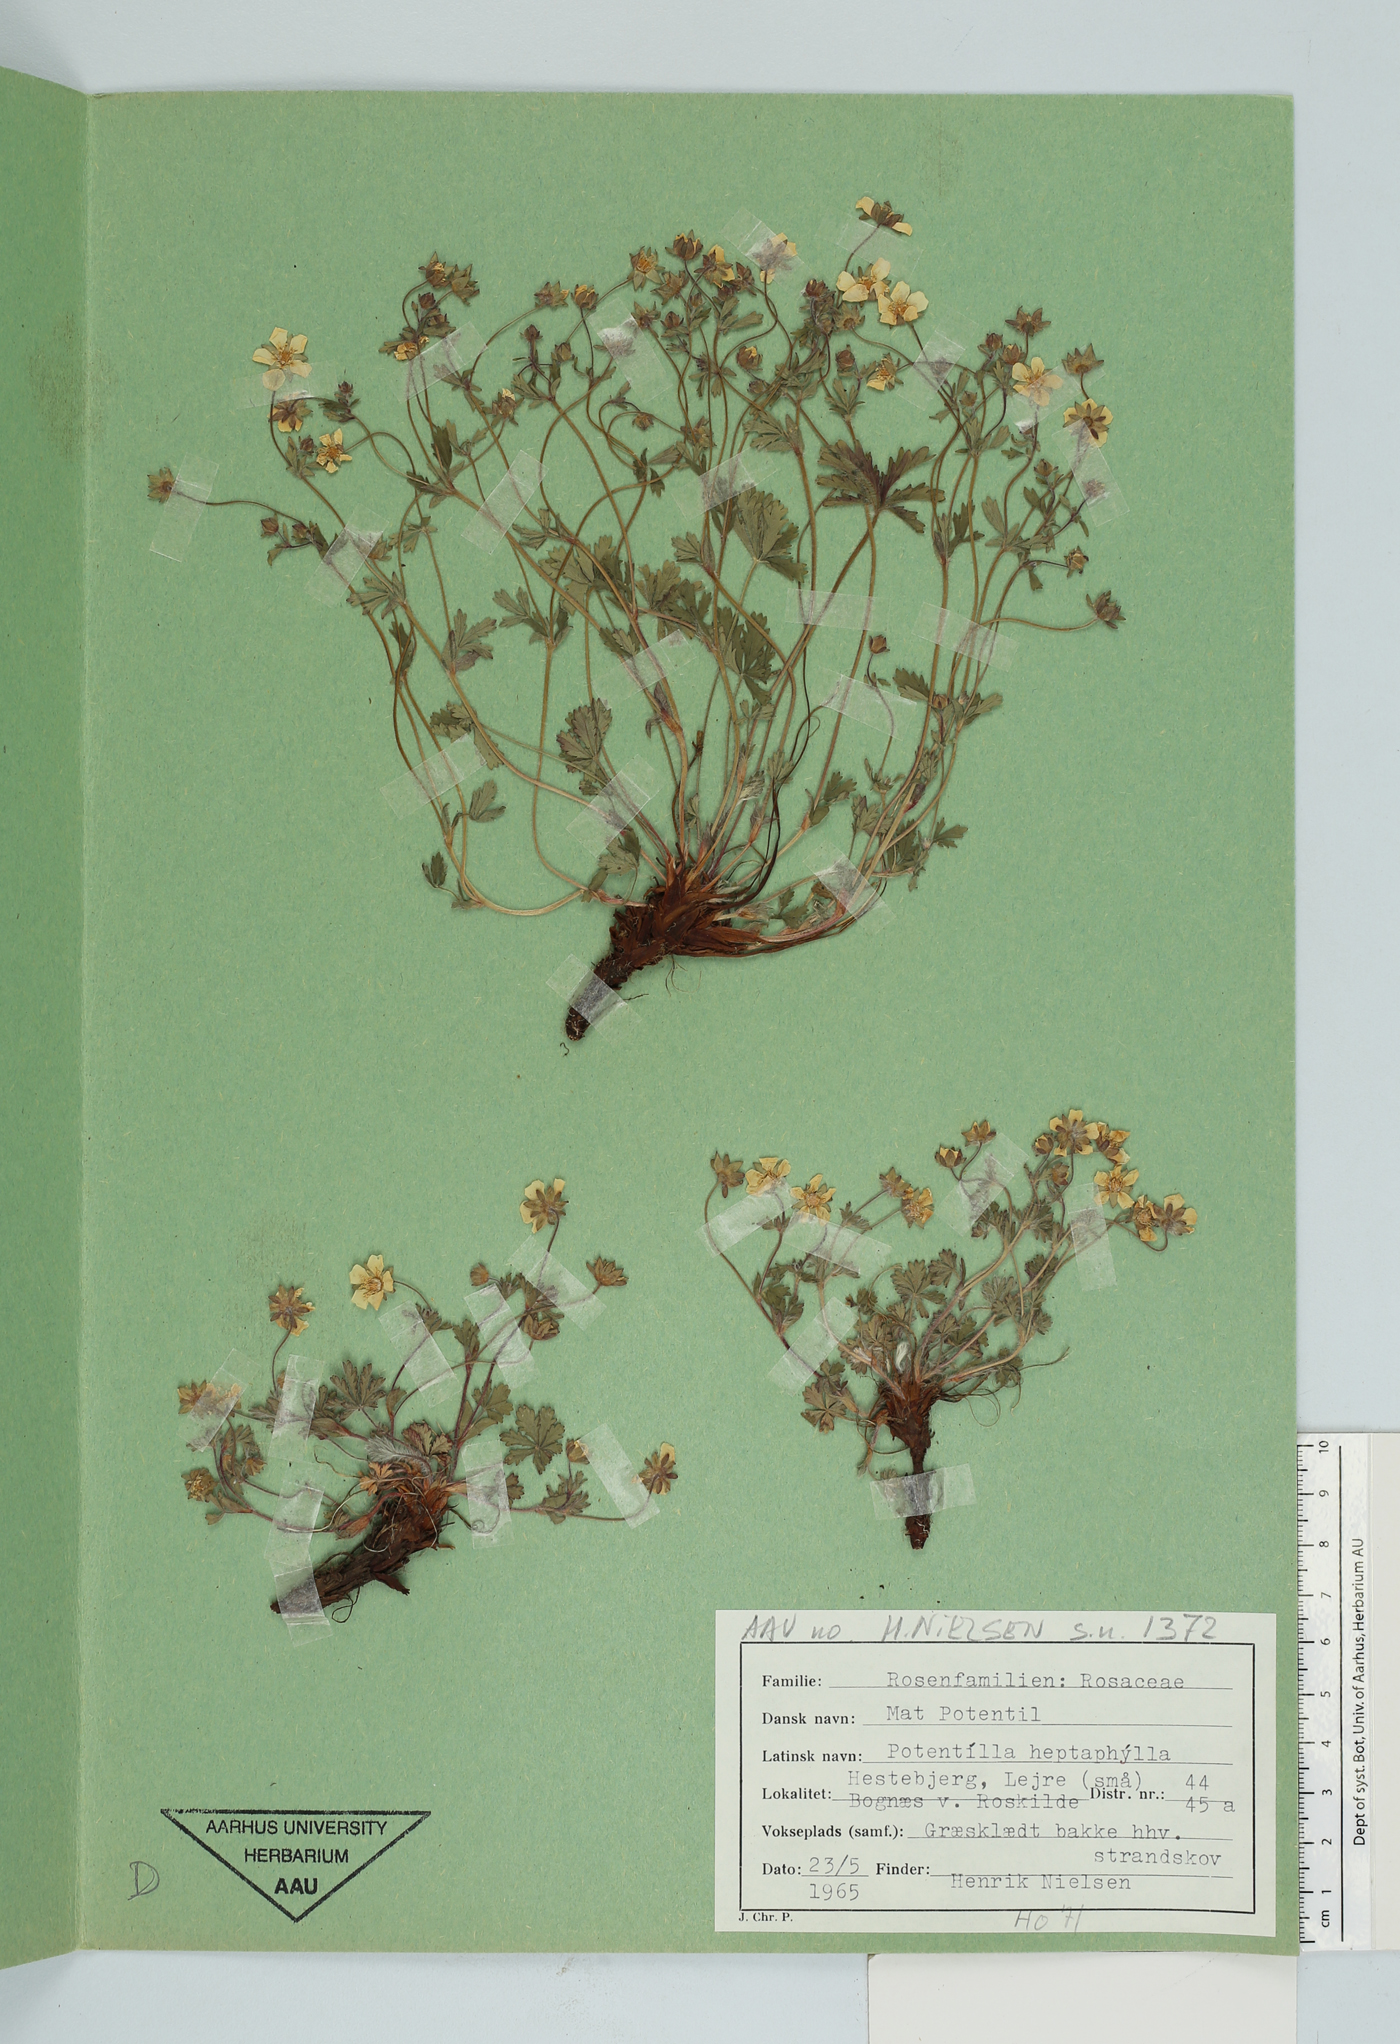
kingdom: Plantae
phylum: Tracheophyta
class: Magnoliopsida
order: Rosales
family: Rosaceae
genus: Potentilla
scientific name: Potentilla heptaphylla
